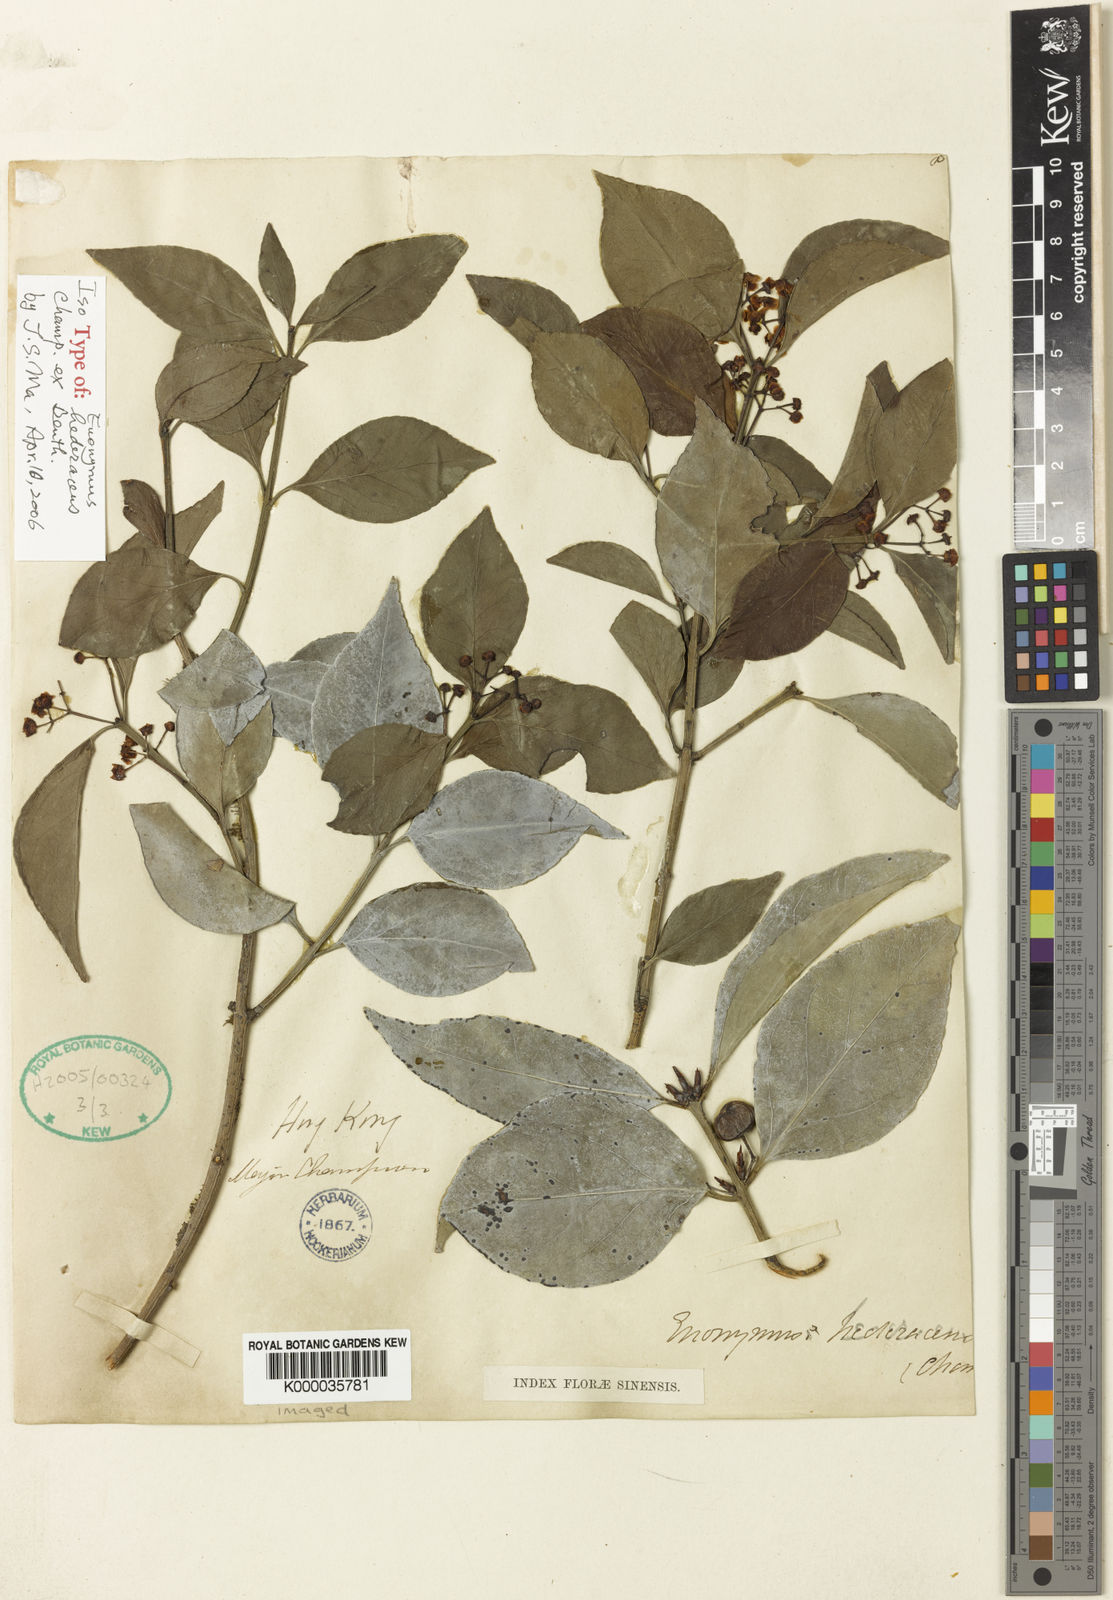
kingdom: Plantae
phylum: Tracheophyta
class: Magnoliopsida
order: Celastrales
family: Celastraceae
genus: Euonymus
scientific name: Euonymus fortunei
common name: Climbing euonymus
